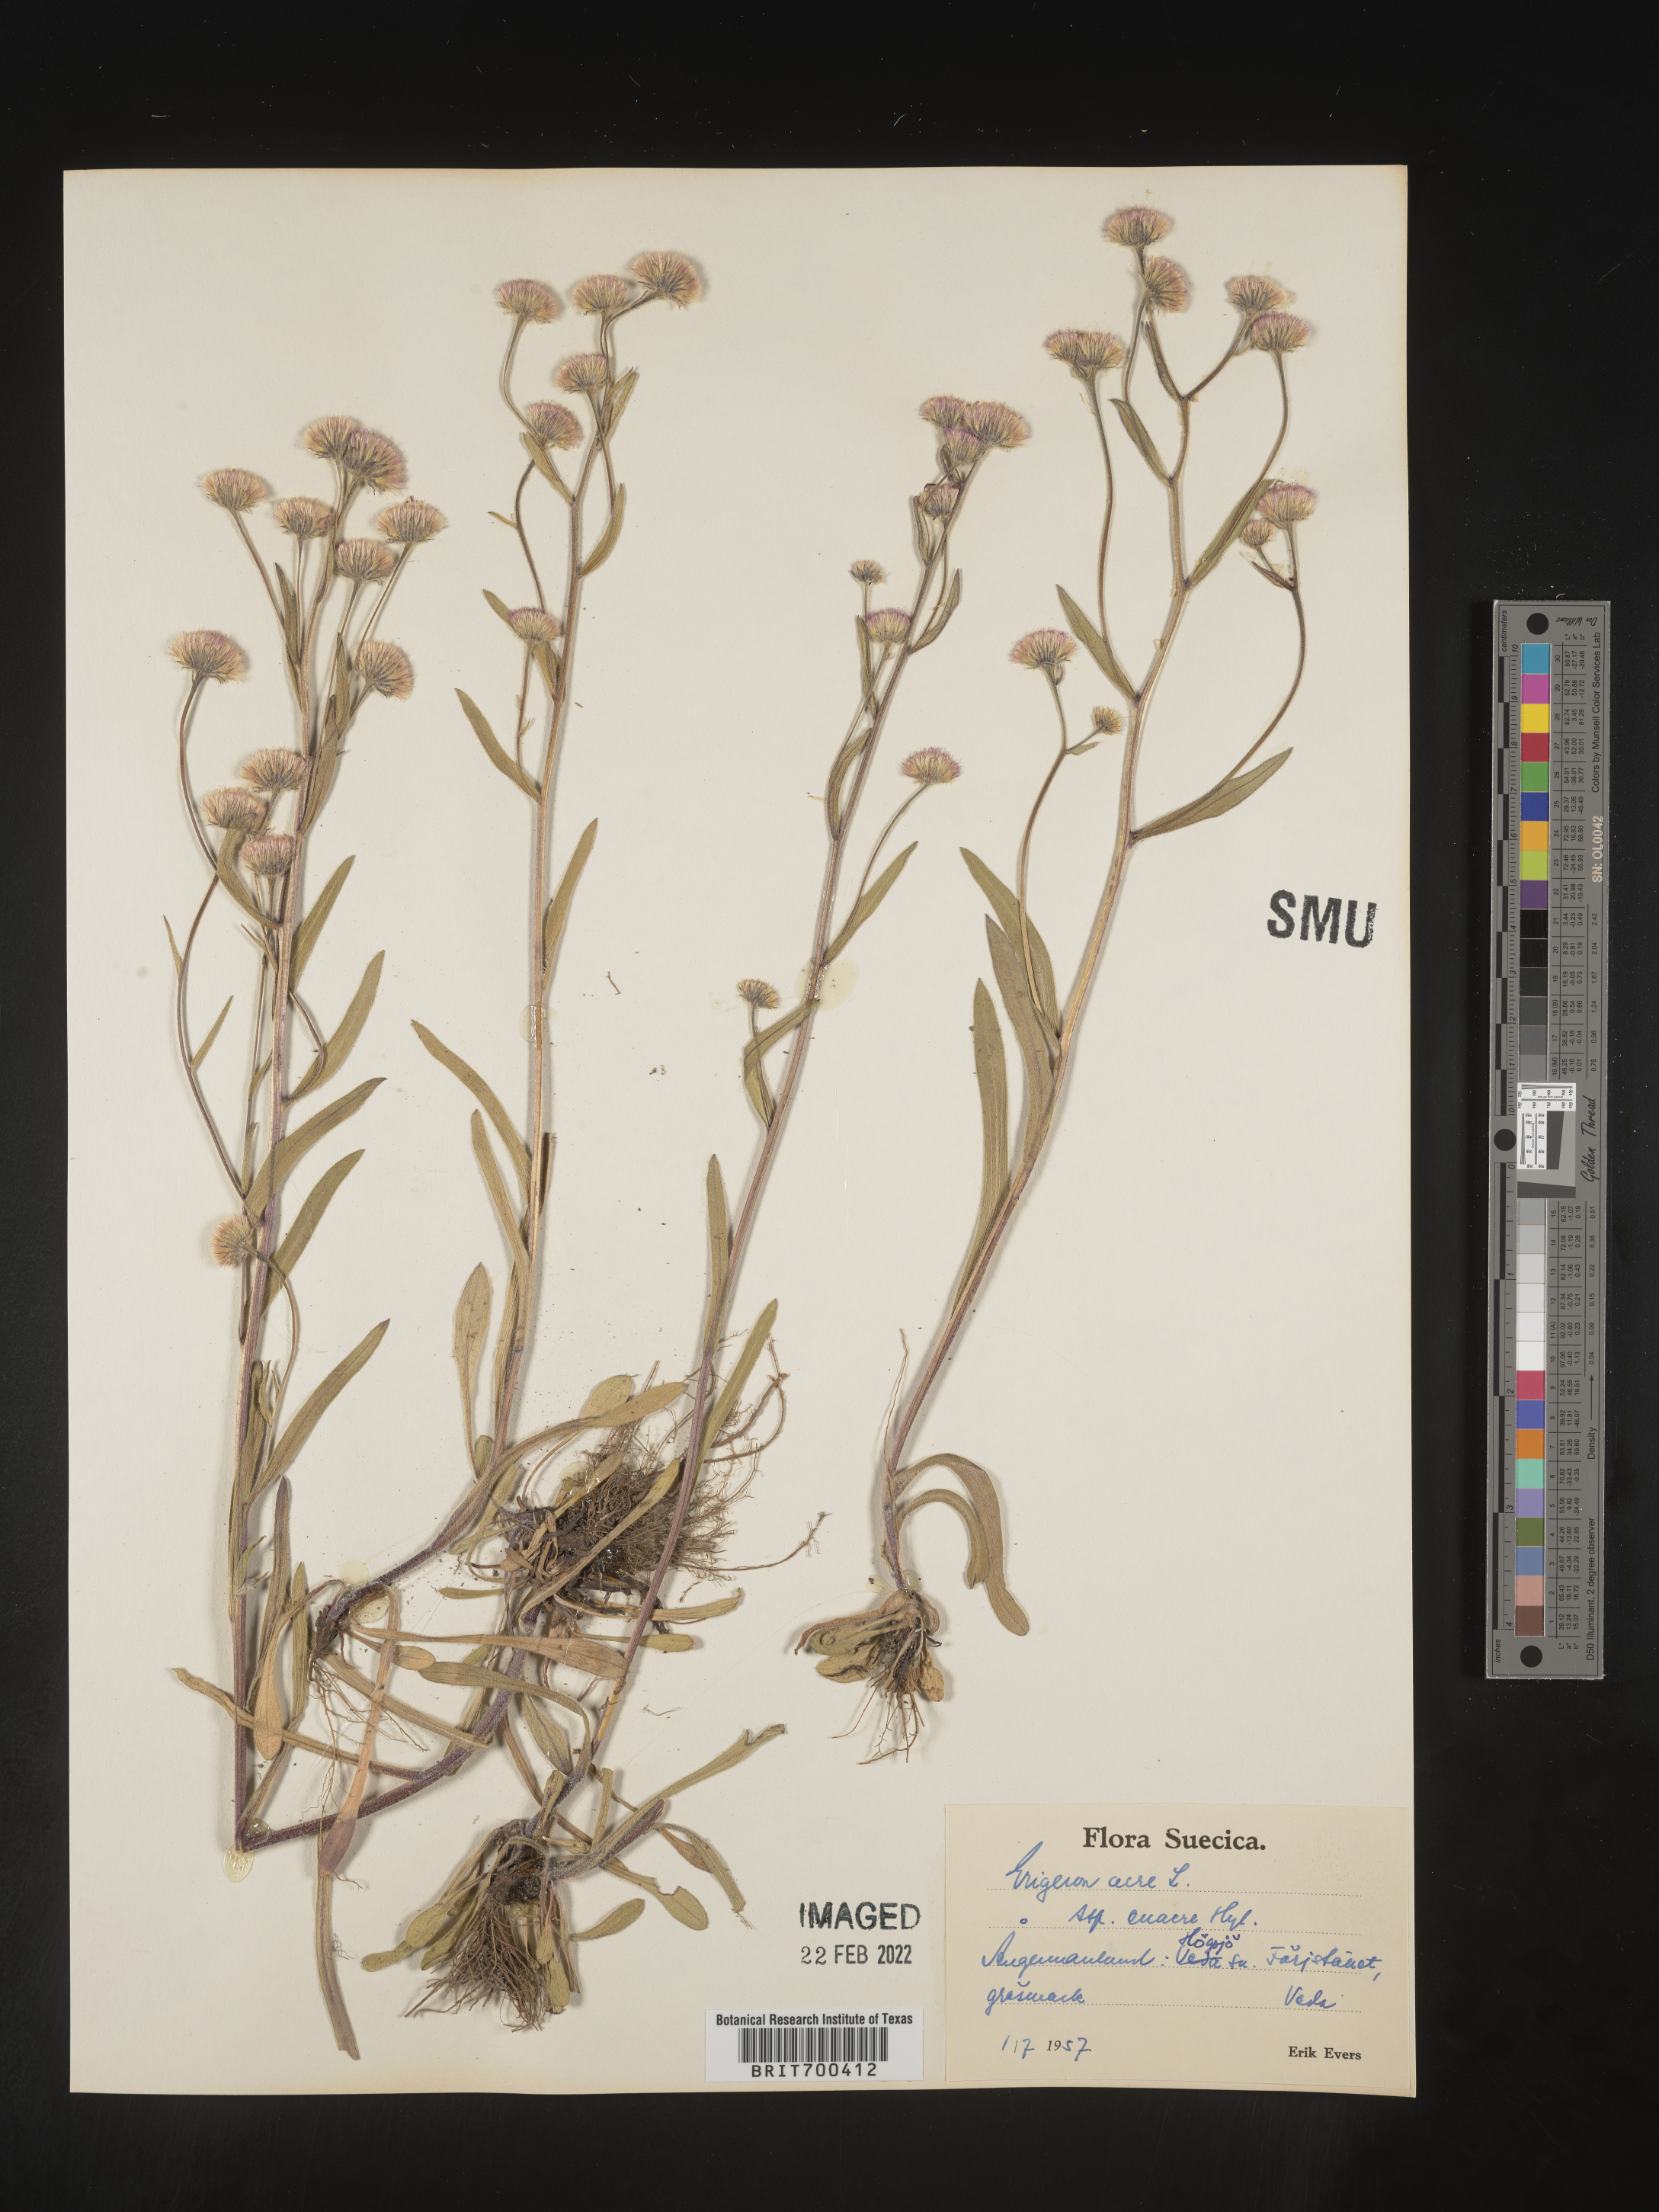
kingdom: Plantae
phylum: Tracheophyta
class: Magnoliopsida
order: Asterales
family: Asteraceae
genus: Erigeron
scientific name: Erigeron
